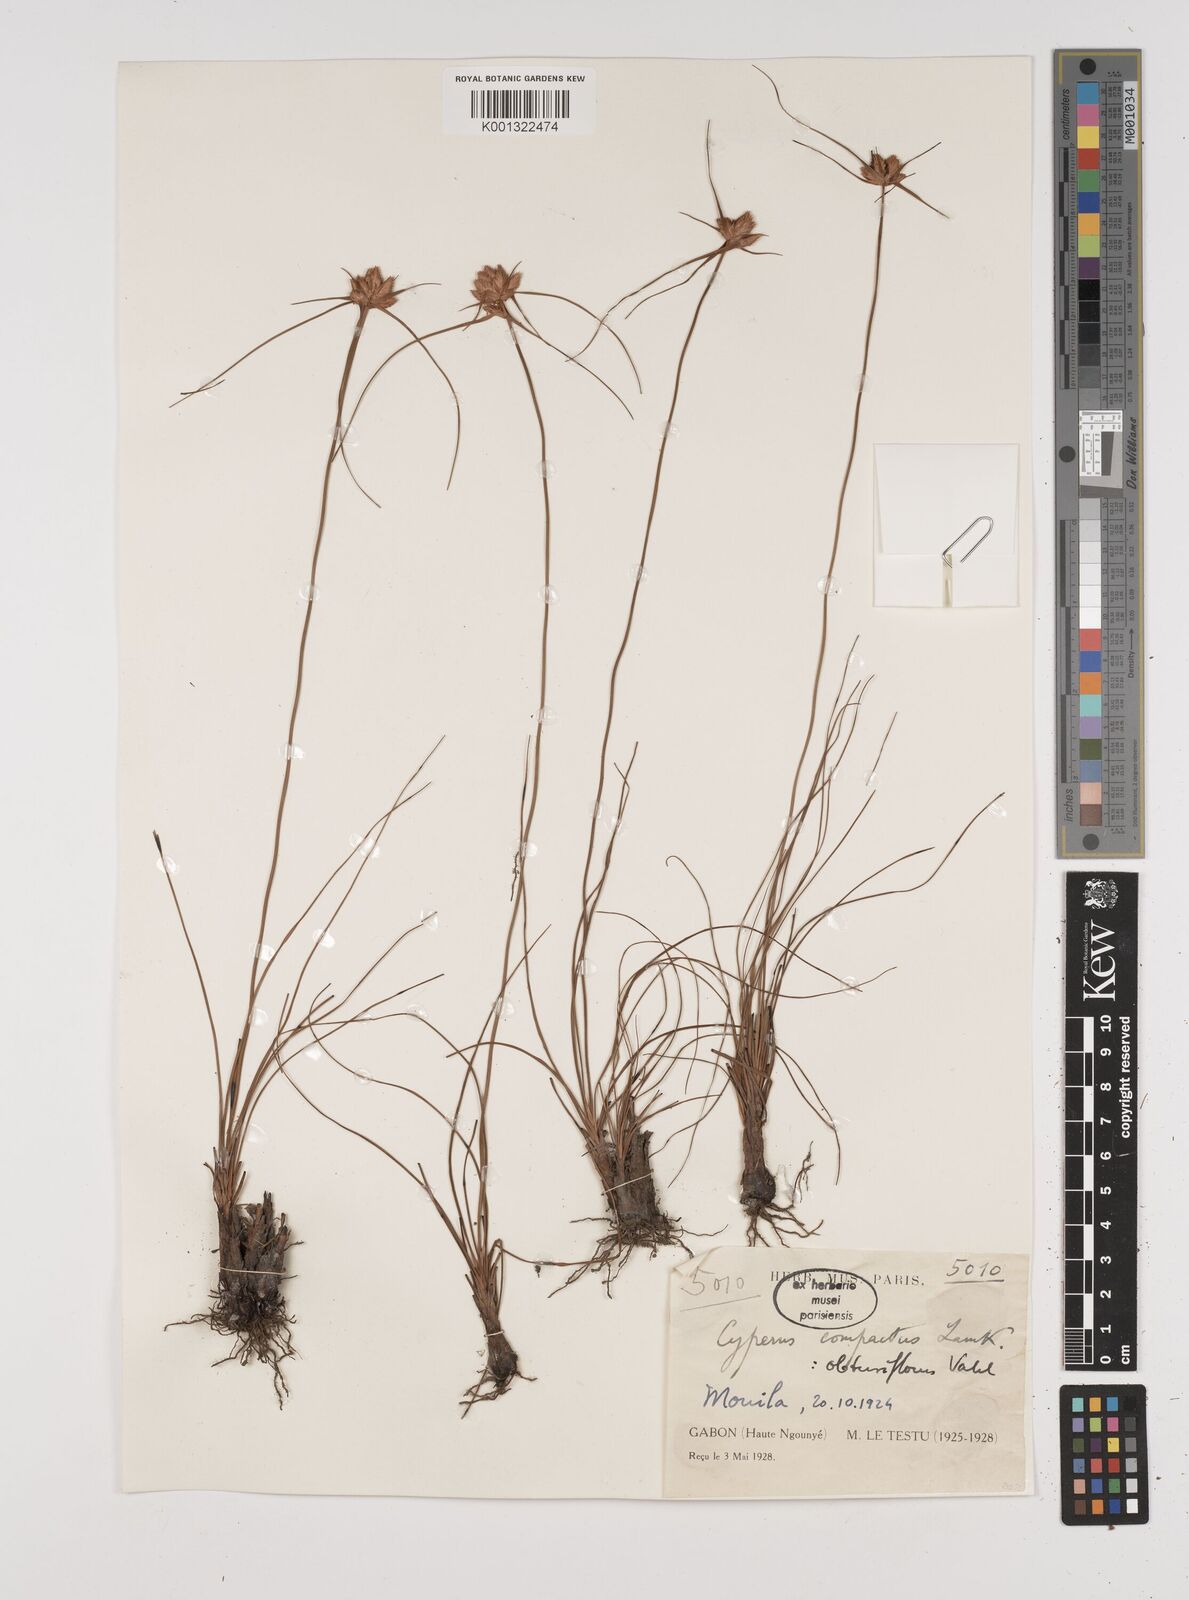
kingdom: Plantae
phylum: Tracheophyta
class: Liliopsida
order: Poales
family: Cyperaceae
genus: Cyperus
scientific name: Cyperus niveus
